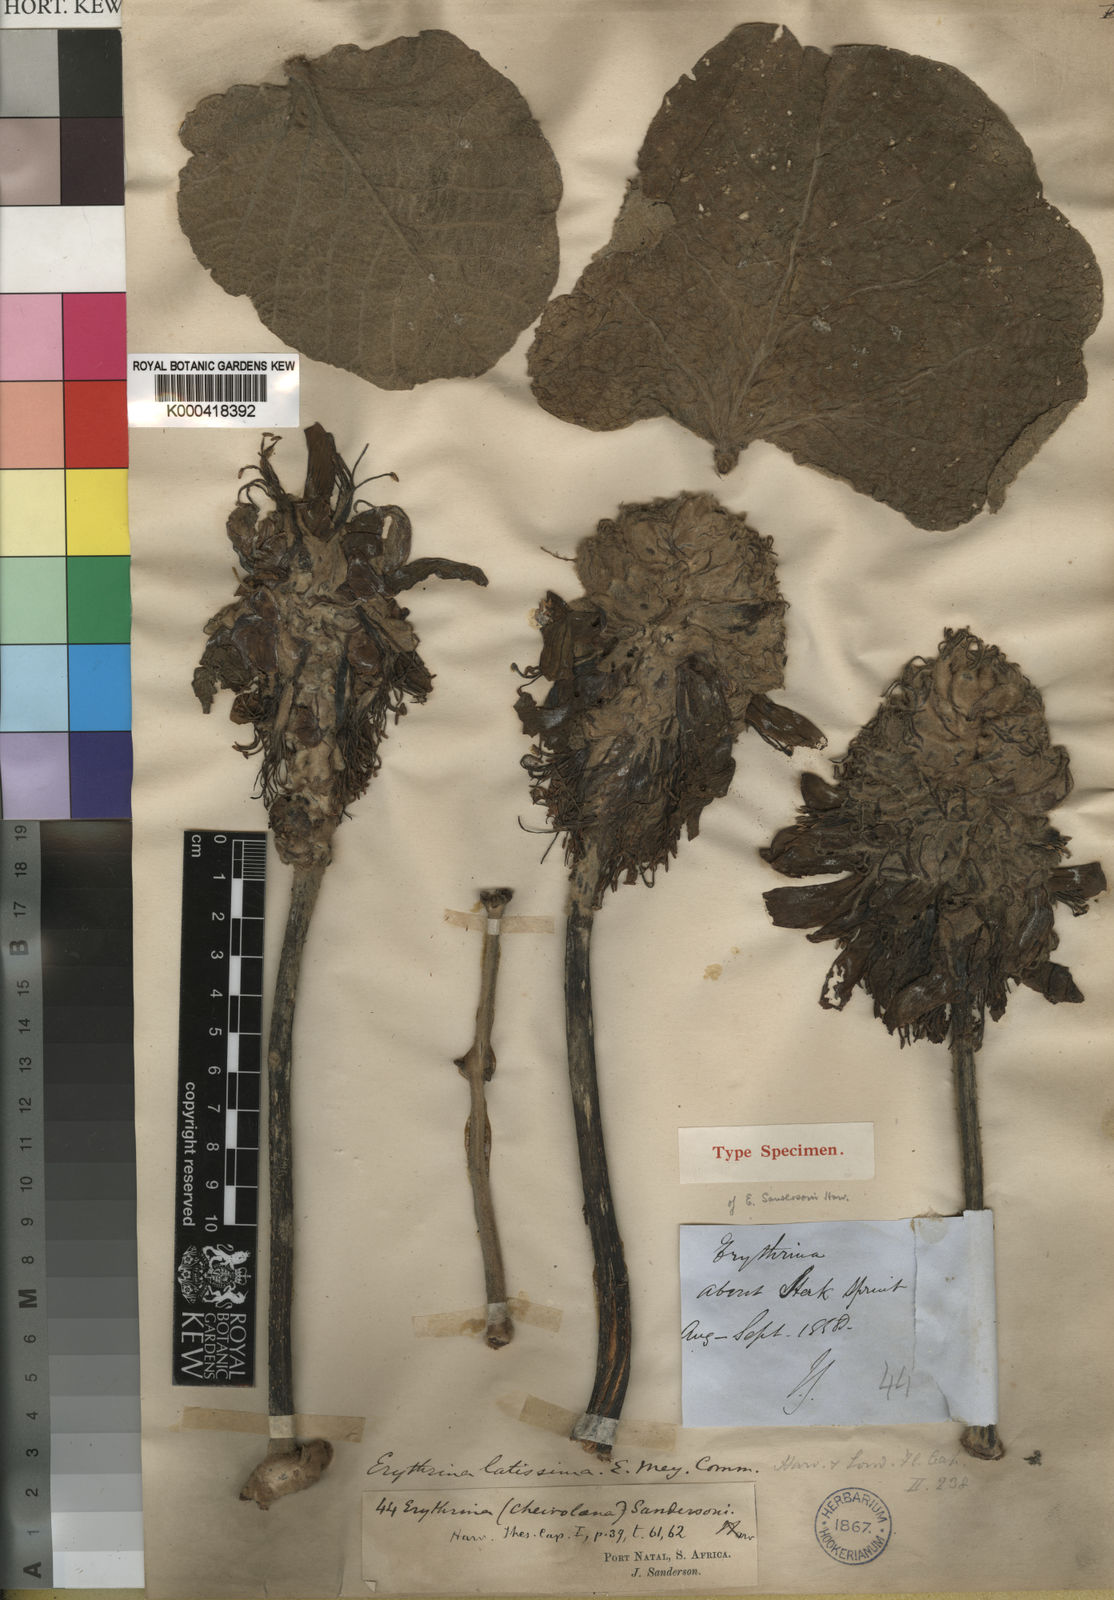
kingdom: Plantae
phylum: Tracheophyta
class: Magnoliopsida
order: Fabales
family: Fabaceae
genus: Erythrina
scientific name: Erythrina latissima
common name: Broad-leaved coral tree
